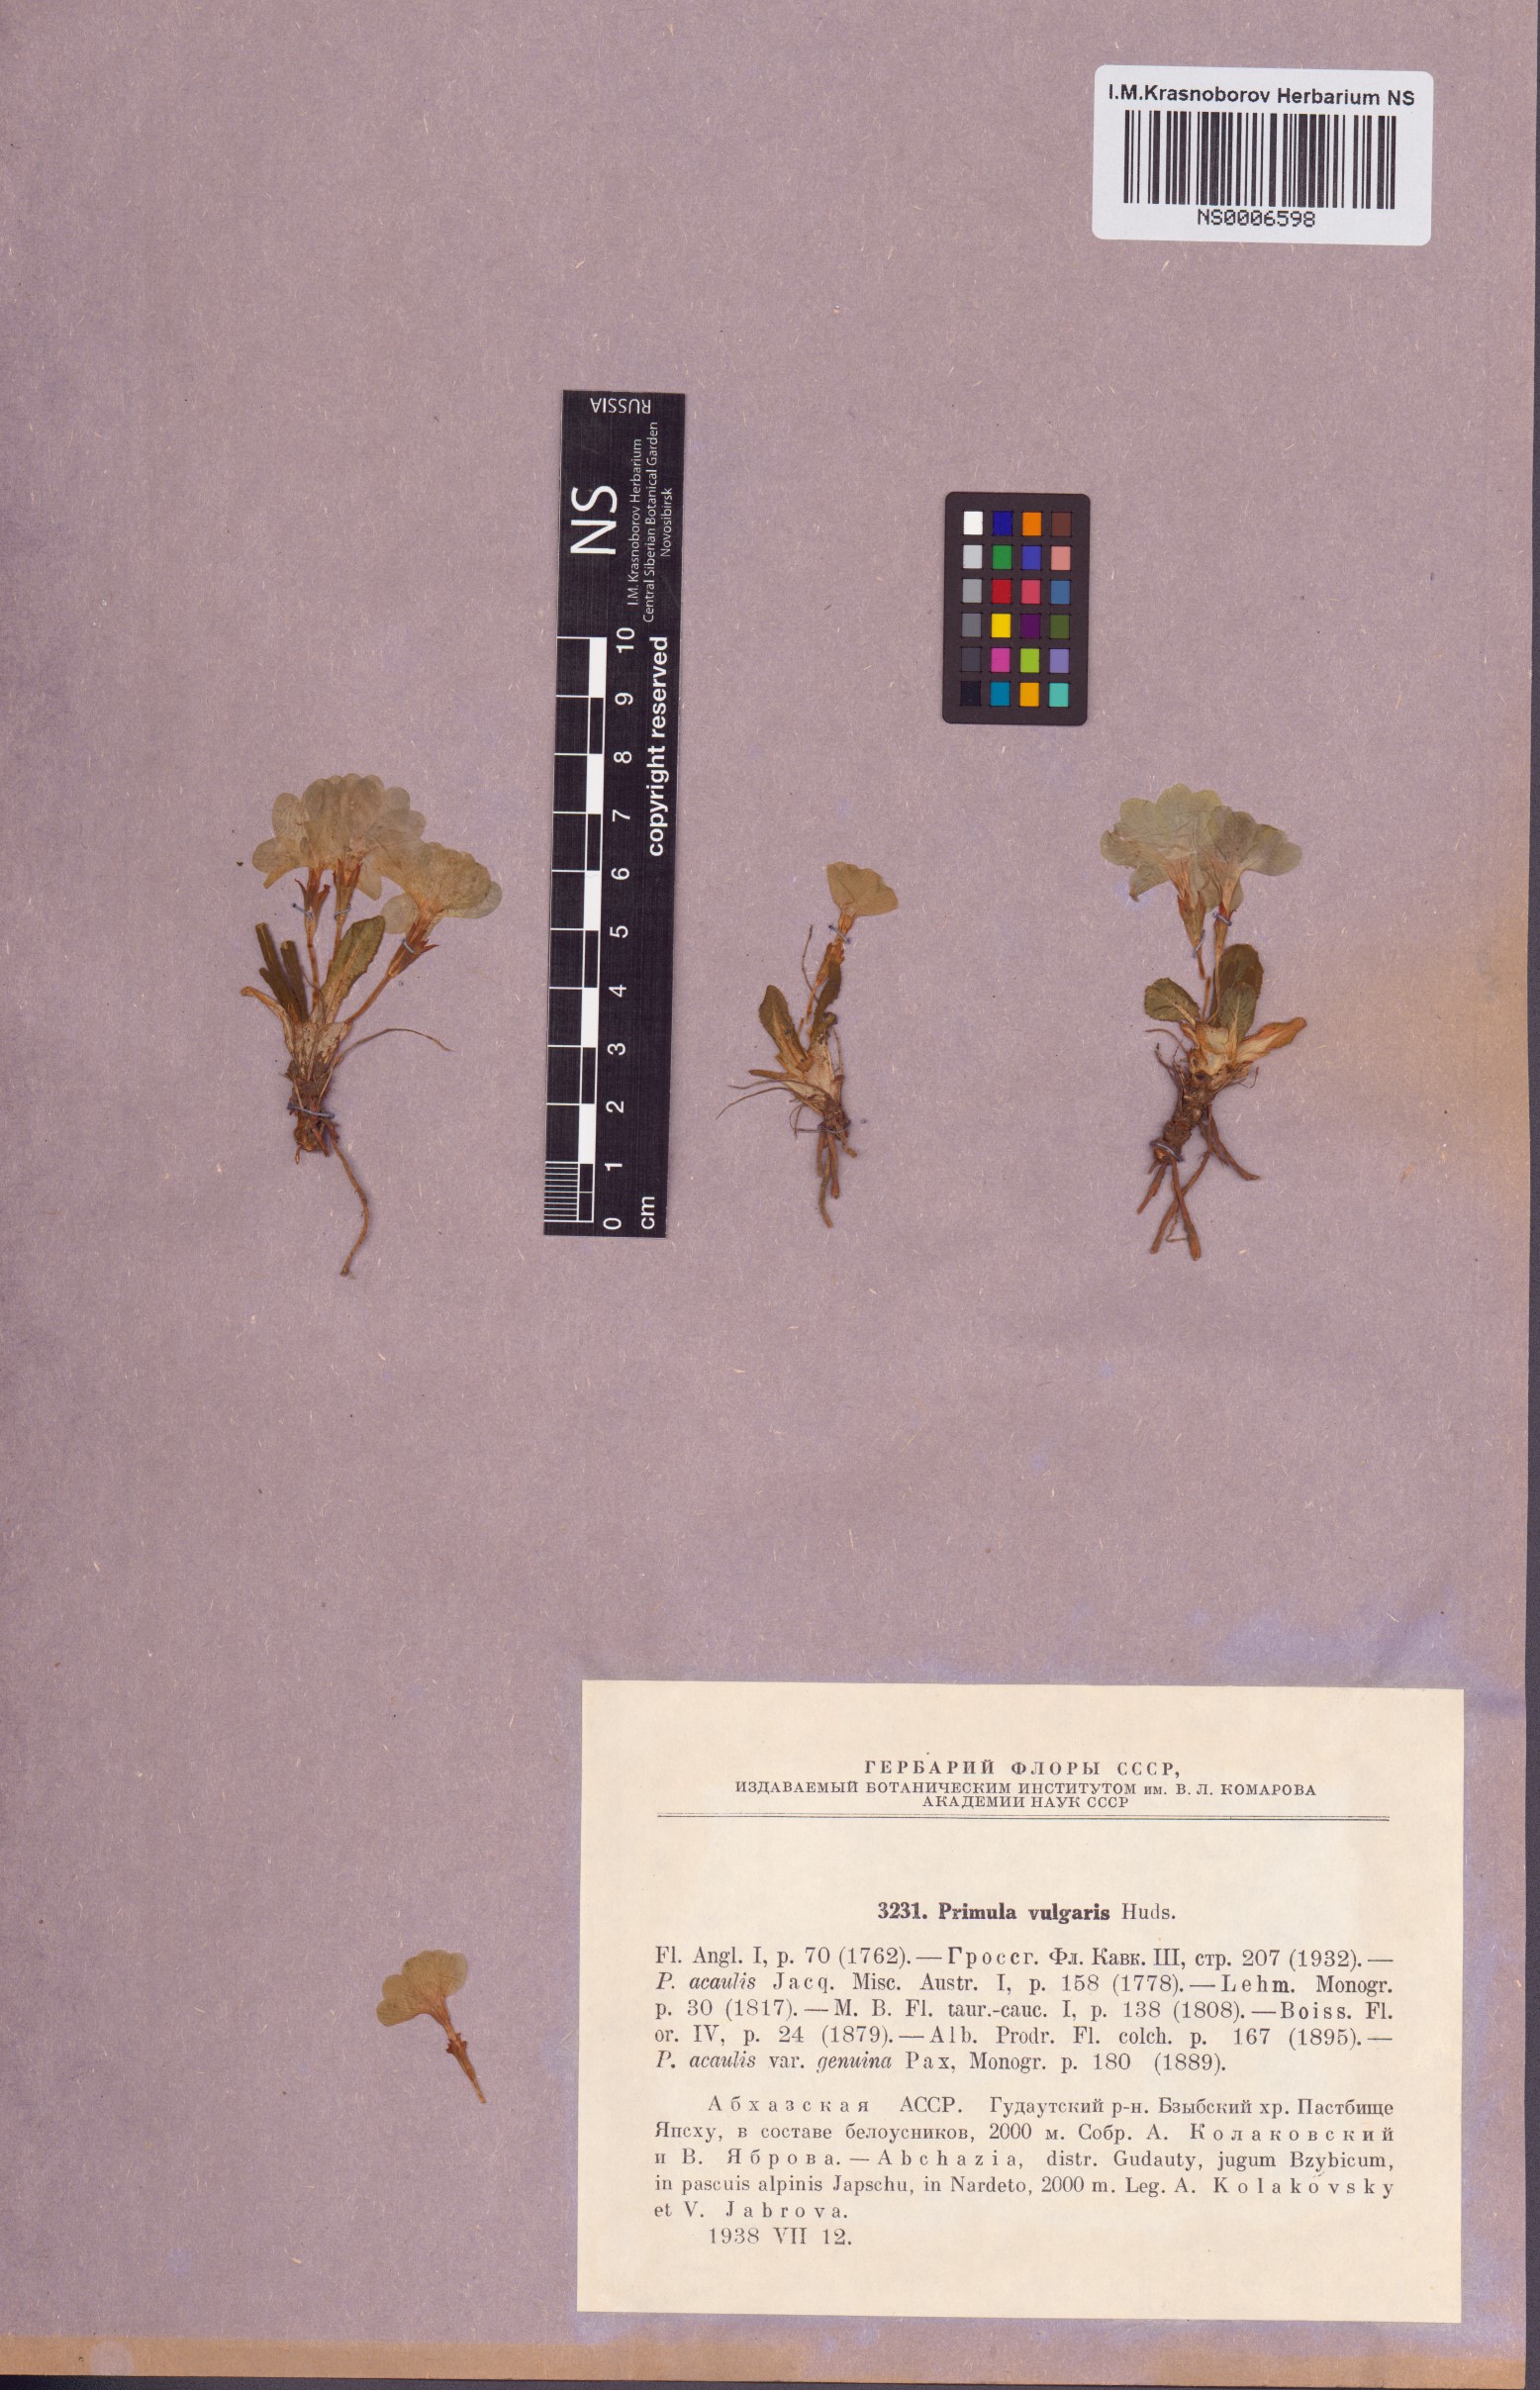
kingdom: Plantae
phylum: Tracheophyta
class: Magnoliopsida
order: Ericales
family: Primulaceae
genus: Primula
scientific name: Primula vulgaris
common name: Primrose
